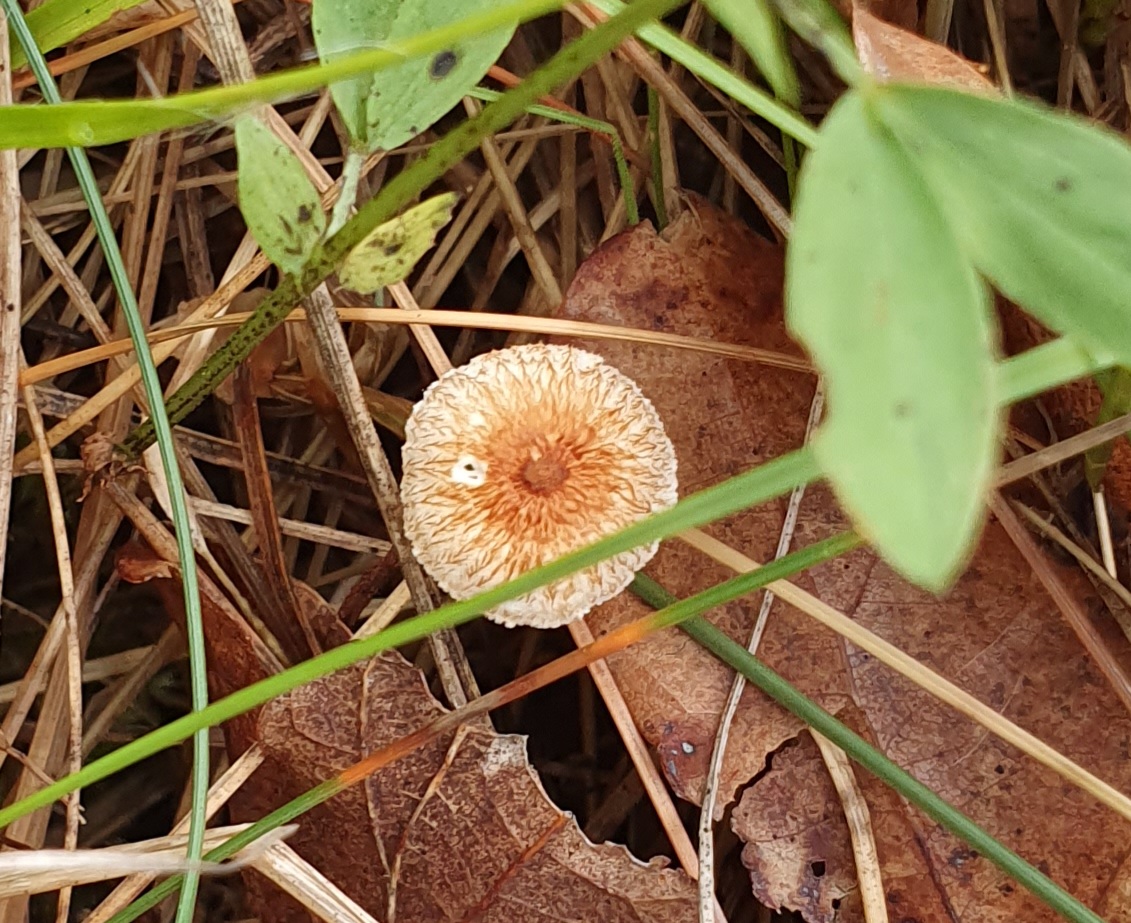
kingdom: Fungi
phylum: Basidiomycota
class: Agaricomycetes
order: Agaricales
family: Marasmiaceae
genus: Crinipellis
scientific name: Crinipellis scabella
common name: børstefod
